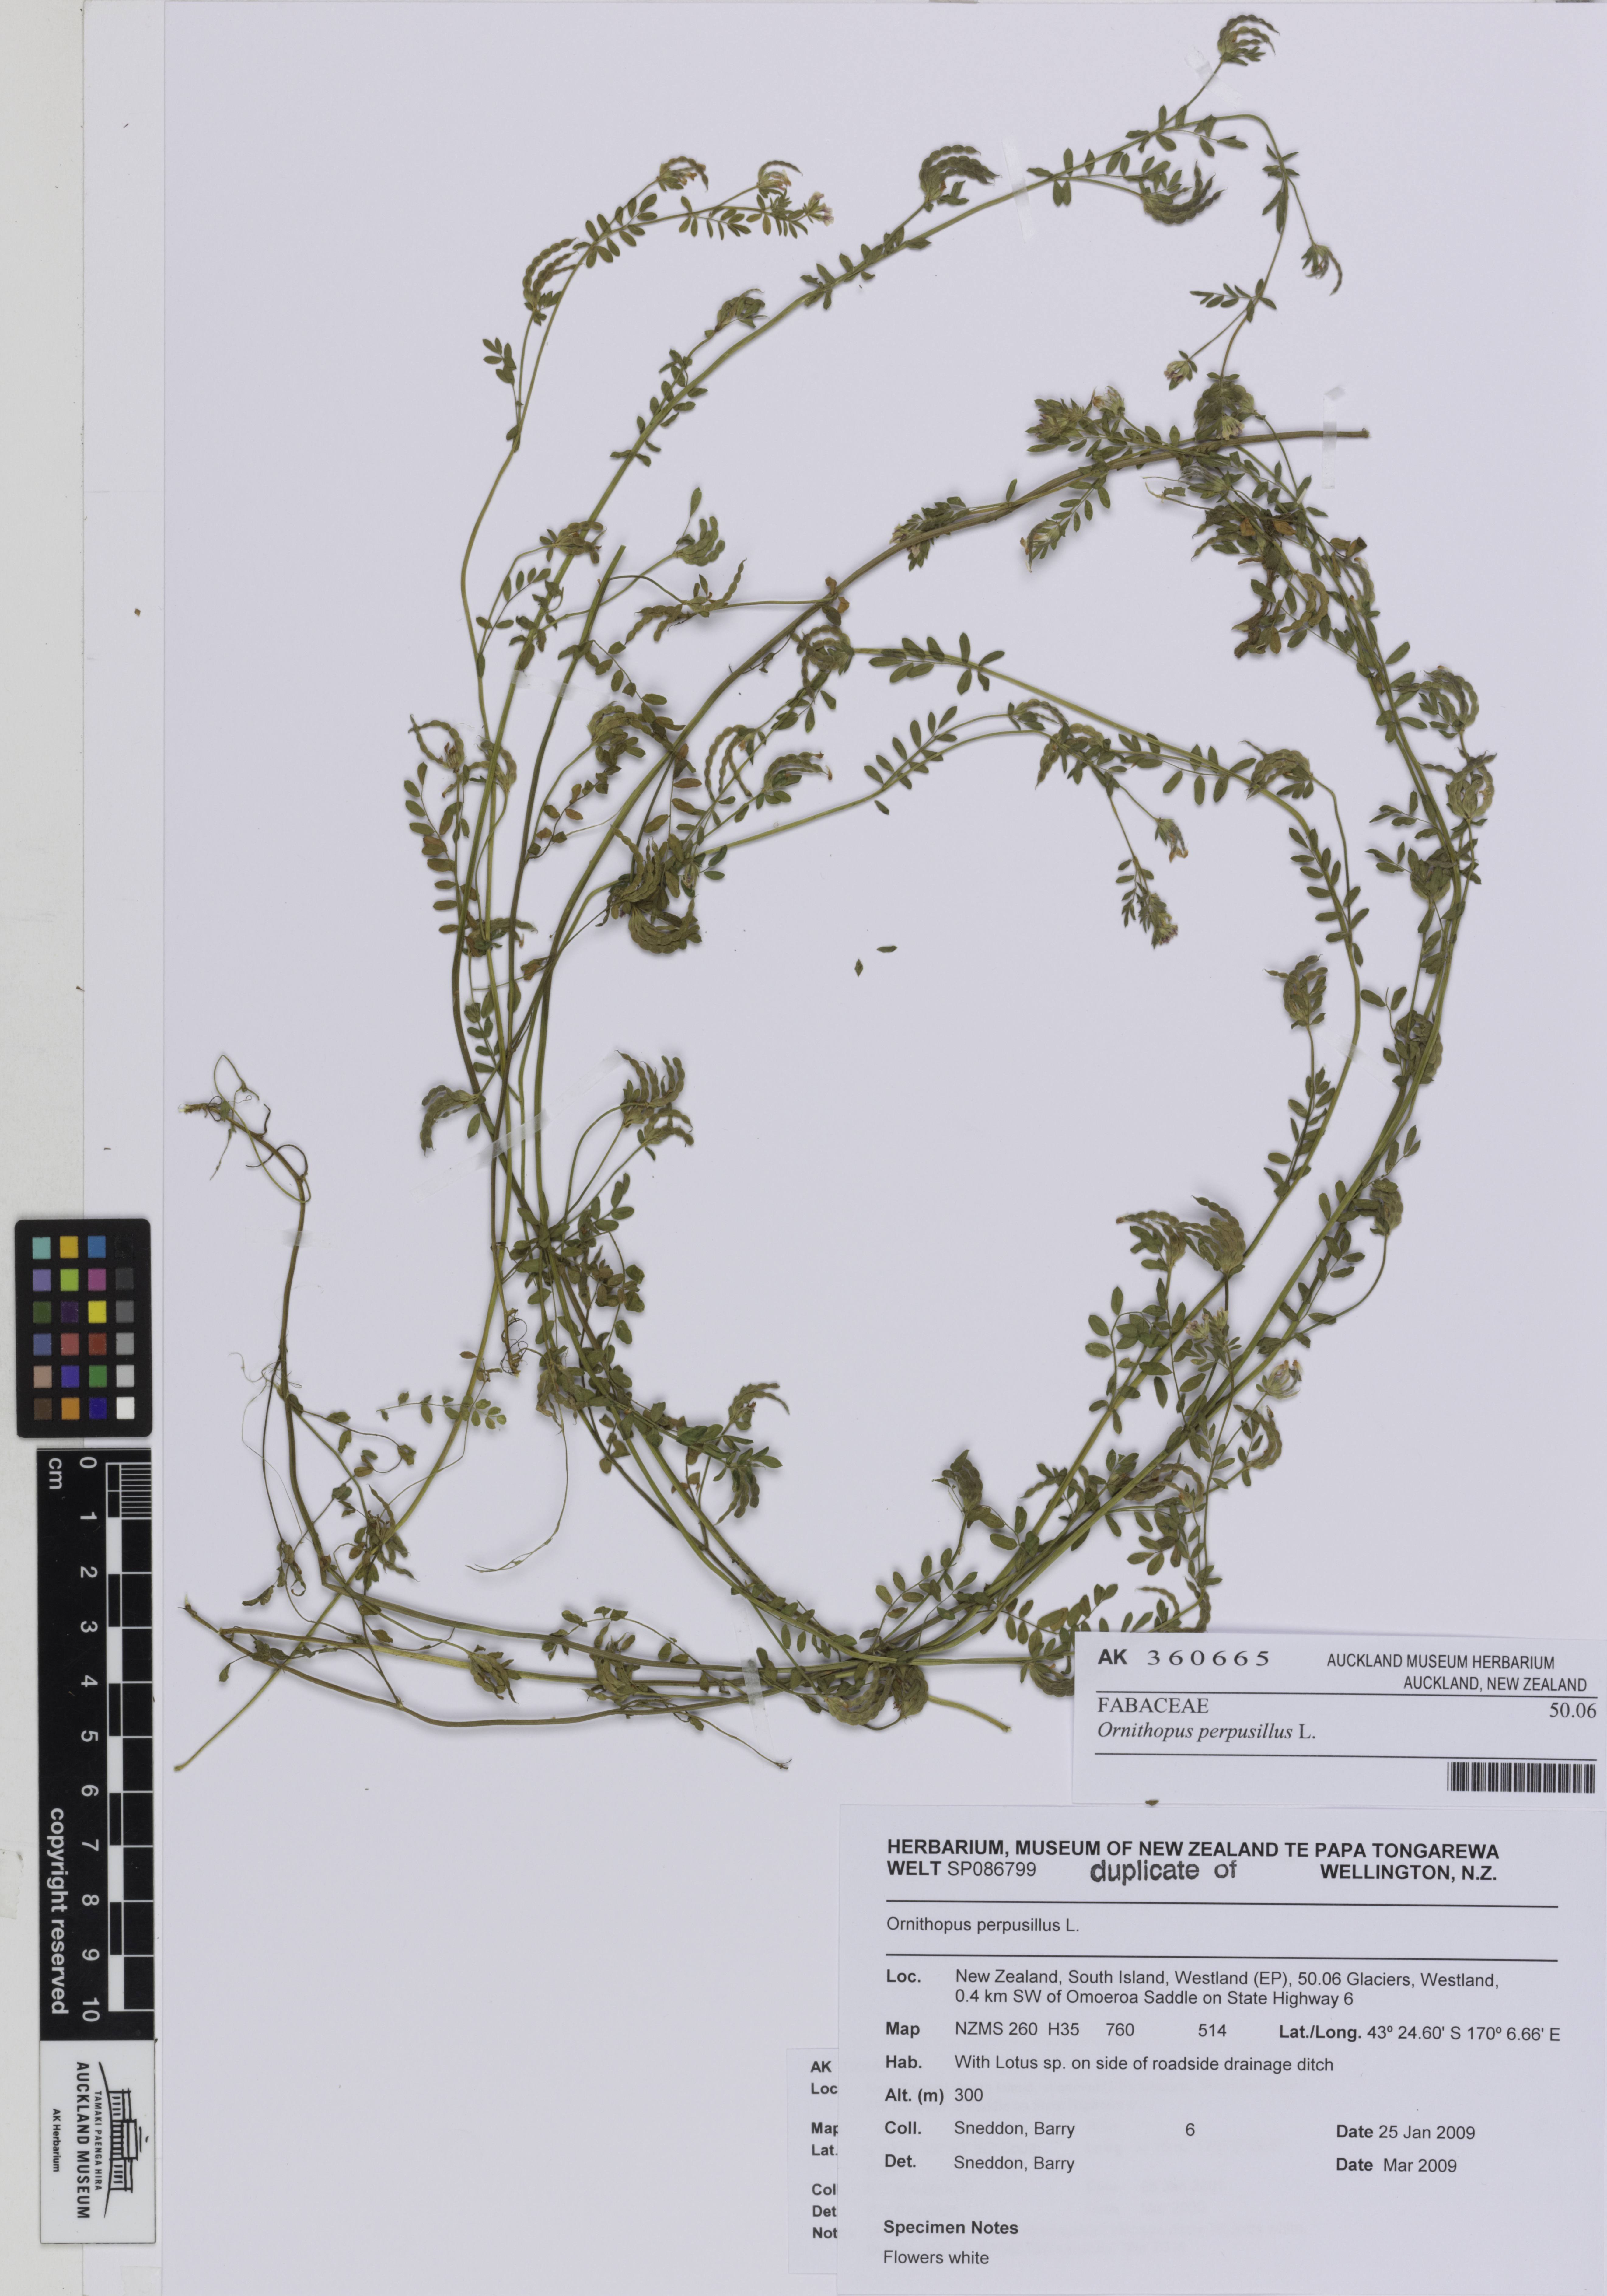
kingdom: Plantae
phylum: Tracheophyta
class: Magnoliopsida
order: Fabales
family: Fabaceae
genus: Ornithopus
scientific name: Ornithopus perpusillus
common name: Bird's-foot
